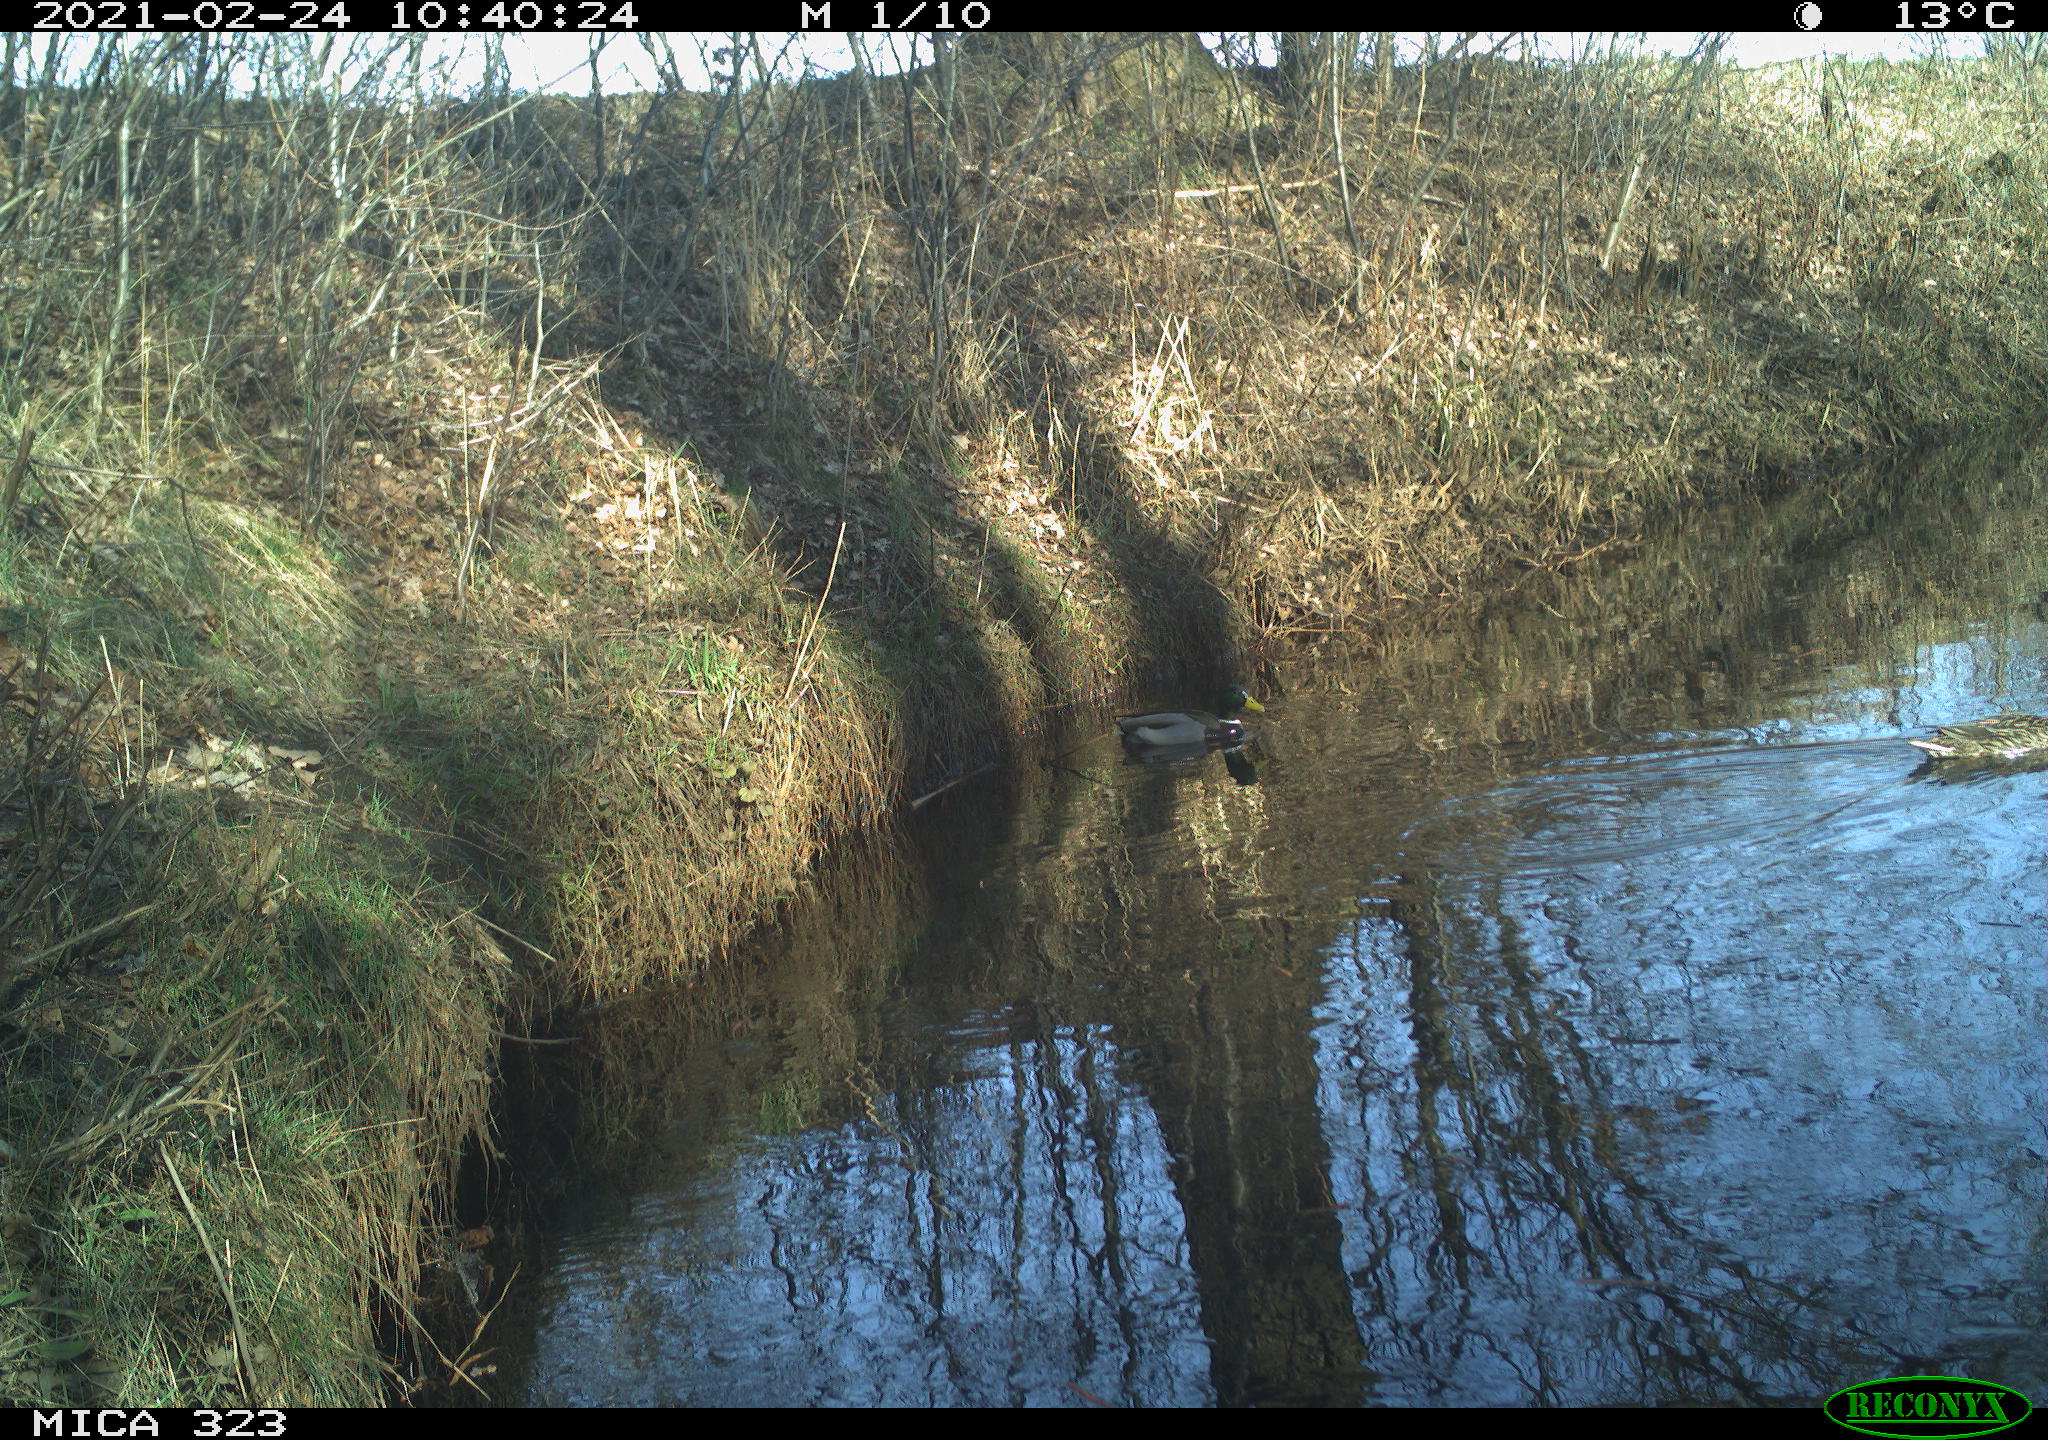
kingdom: Animalia
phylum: Chordata
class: Aves
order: Anseriformes
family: Anatidae
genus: Anas
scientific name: Anas platyrhynchos
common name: Mallard
